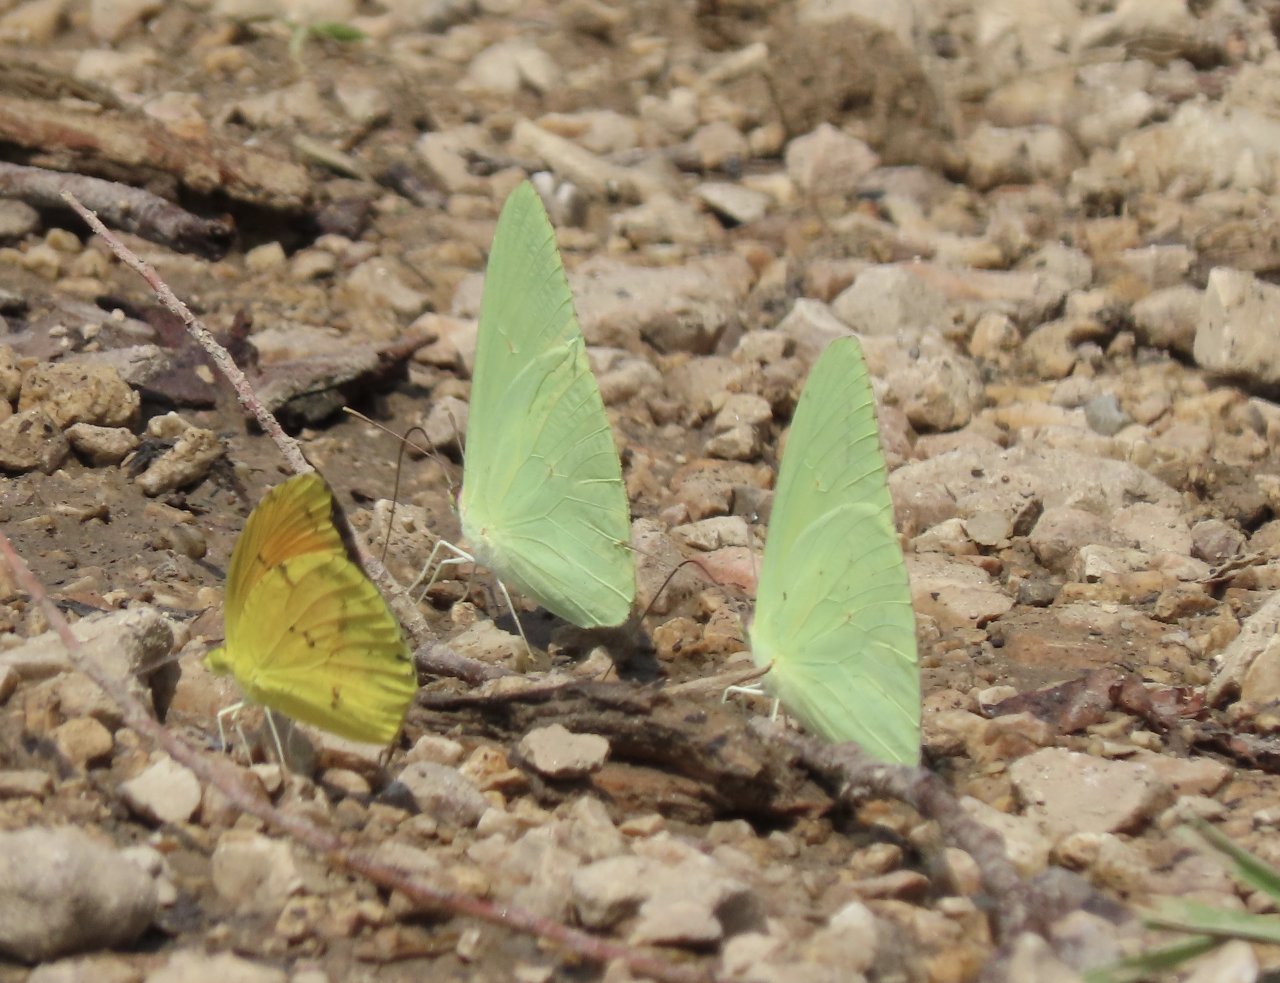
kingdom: Animalia
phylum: Arthropoda
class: Insecta
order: Lepidoptera
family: Pieridae
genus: Phoebis
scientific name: Phoebis sennae
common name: Cloudless Sulphur
